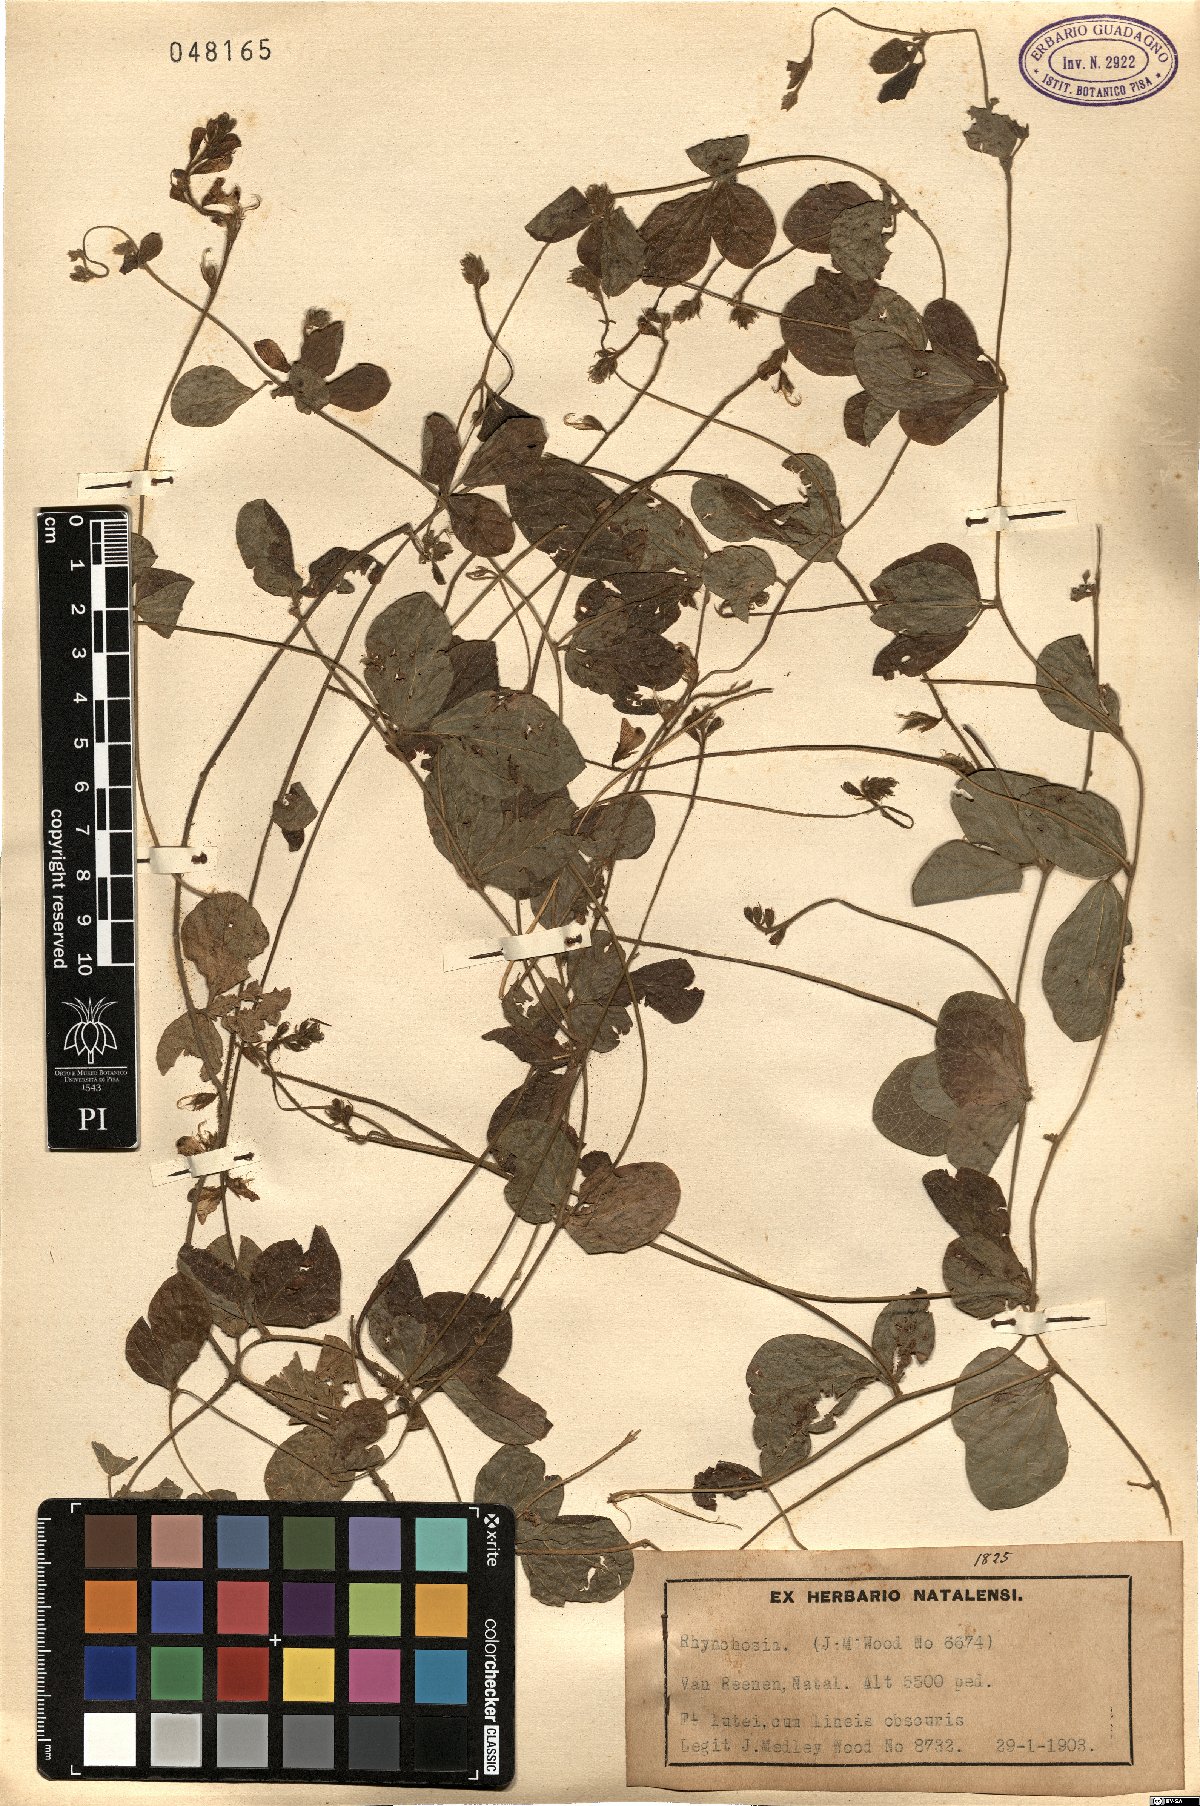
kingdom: Plantae
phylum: Tracheophyta
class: Magnoliopsida
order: Fabales
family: Fabaceae
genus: Rhynchosia
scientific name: Rhynchosia
